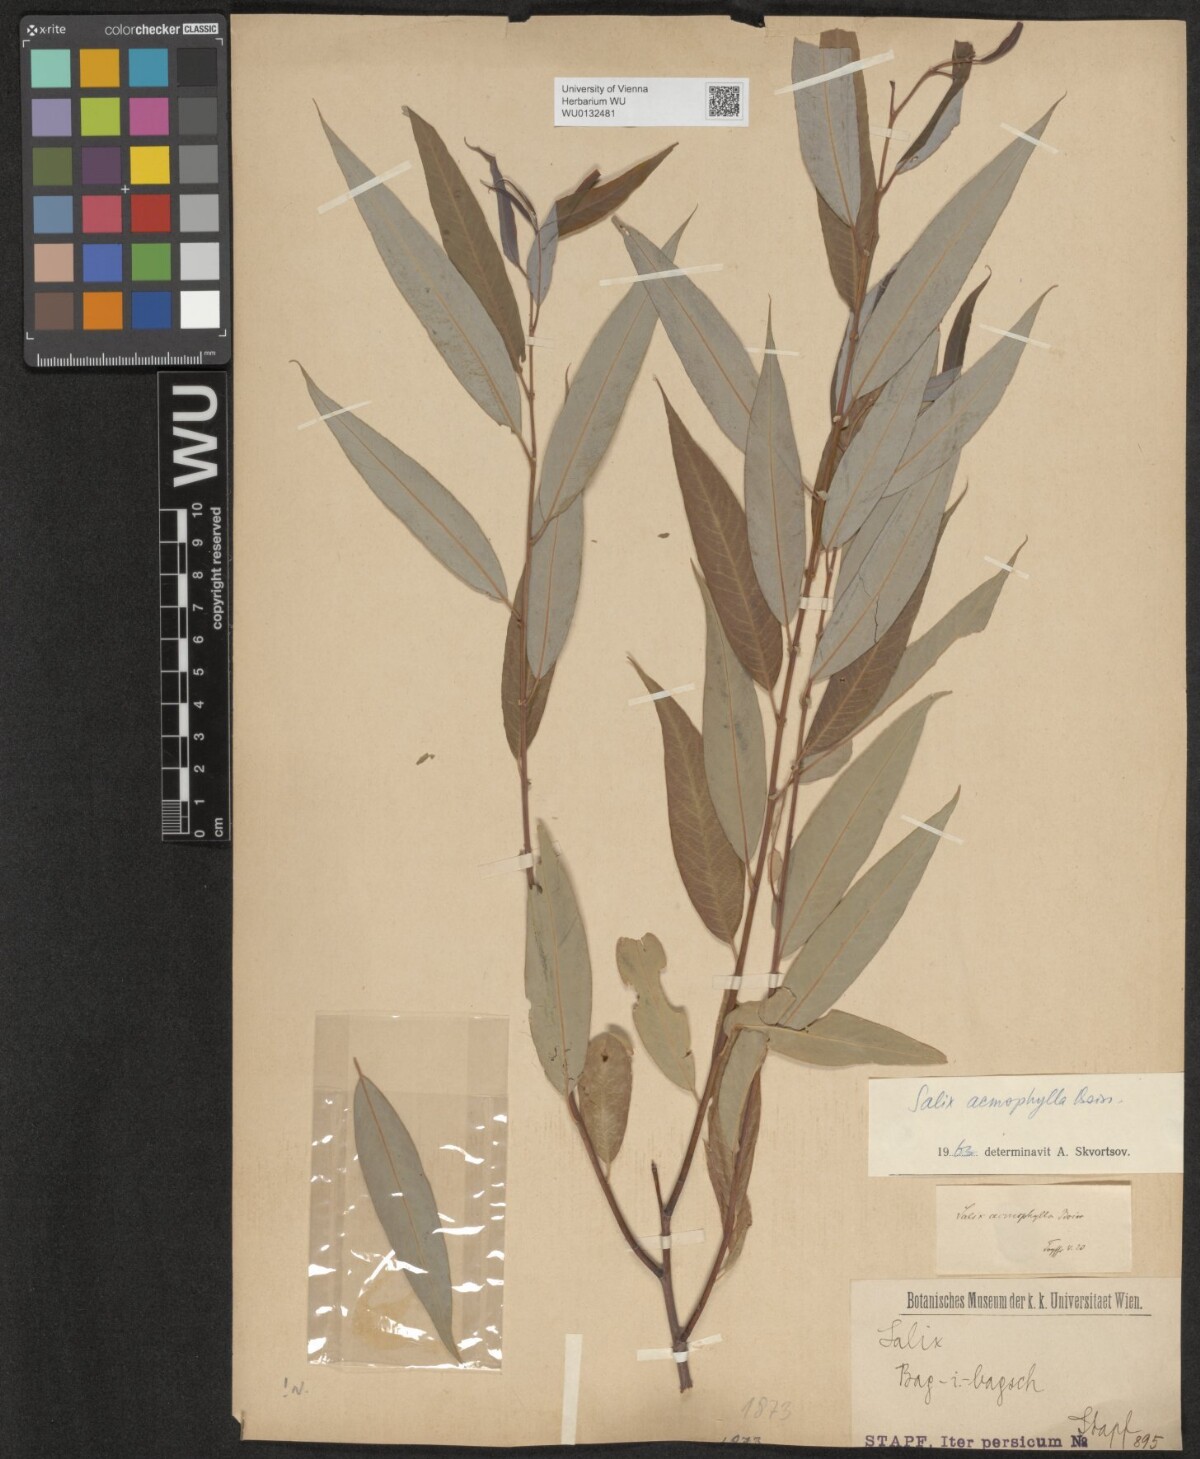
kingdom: Plantae
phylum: Tracheophyta
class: Magnoliopsida
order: Malpighiales
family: Salicaceae
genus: Salix
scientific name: Salix acmophylla
